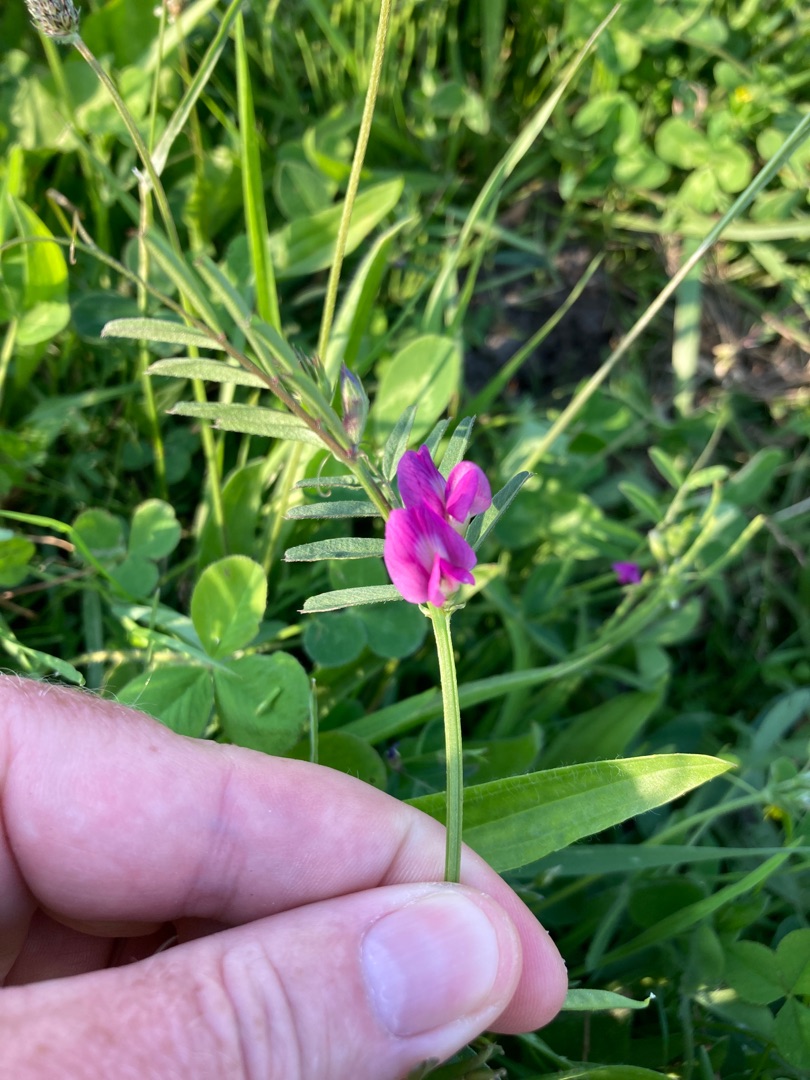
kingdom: Plantae
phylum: Tracheophyta
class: Magnoliopsida
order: Fabales
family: Fabaceae
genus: Vicia
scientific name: Vicia sativa
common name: Foder-vikke
